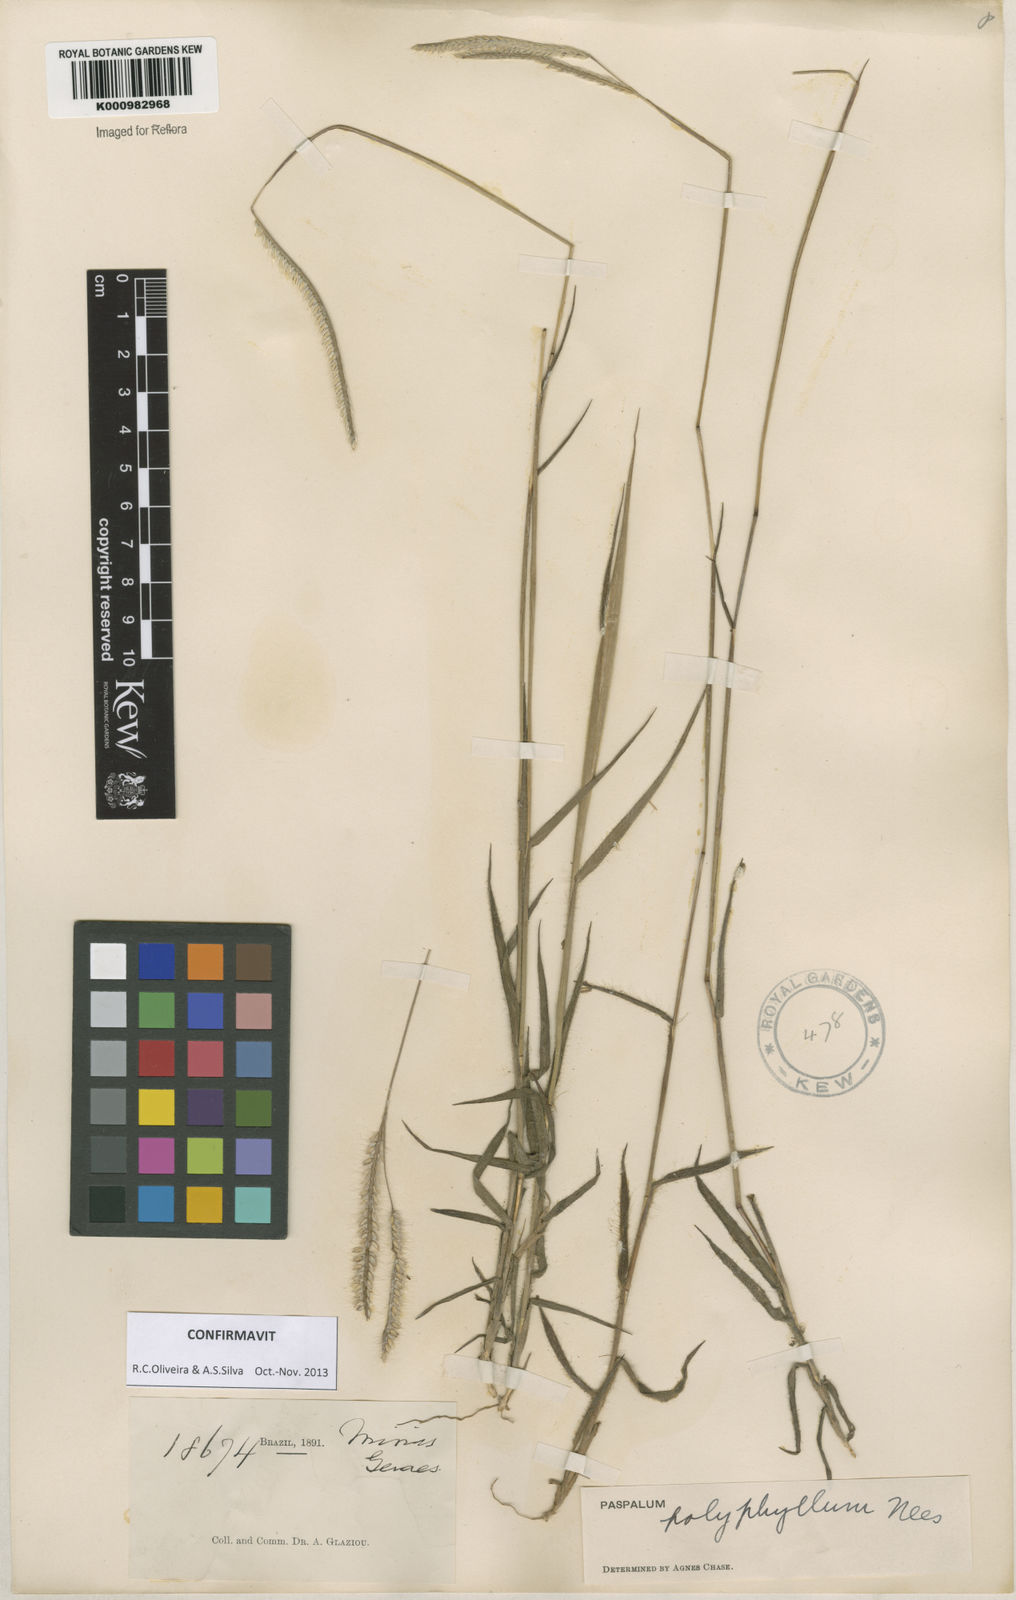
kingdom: Plantae
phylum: Tracheophyta
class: Liliopsida
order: Poales
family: Poaceae
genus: Paspalum
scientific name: Paspalum
